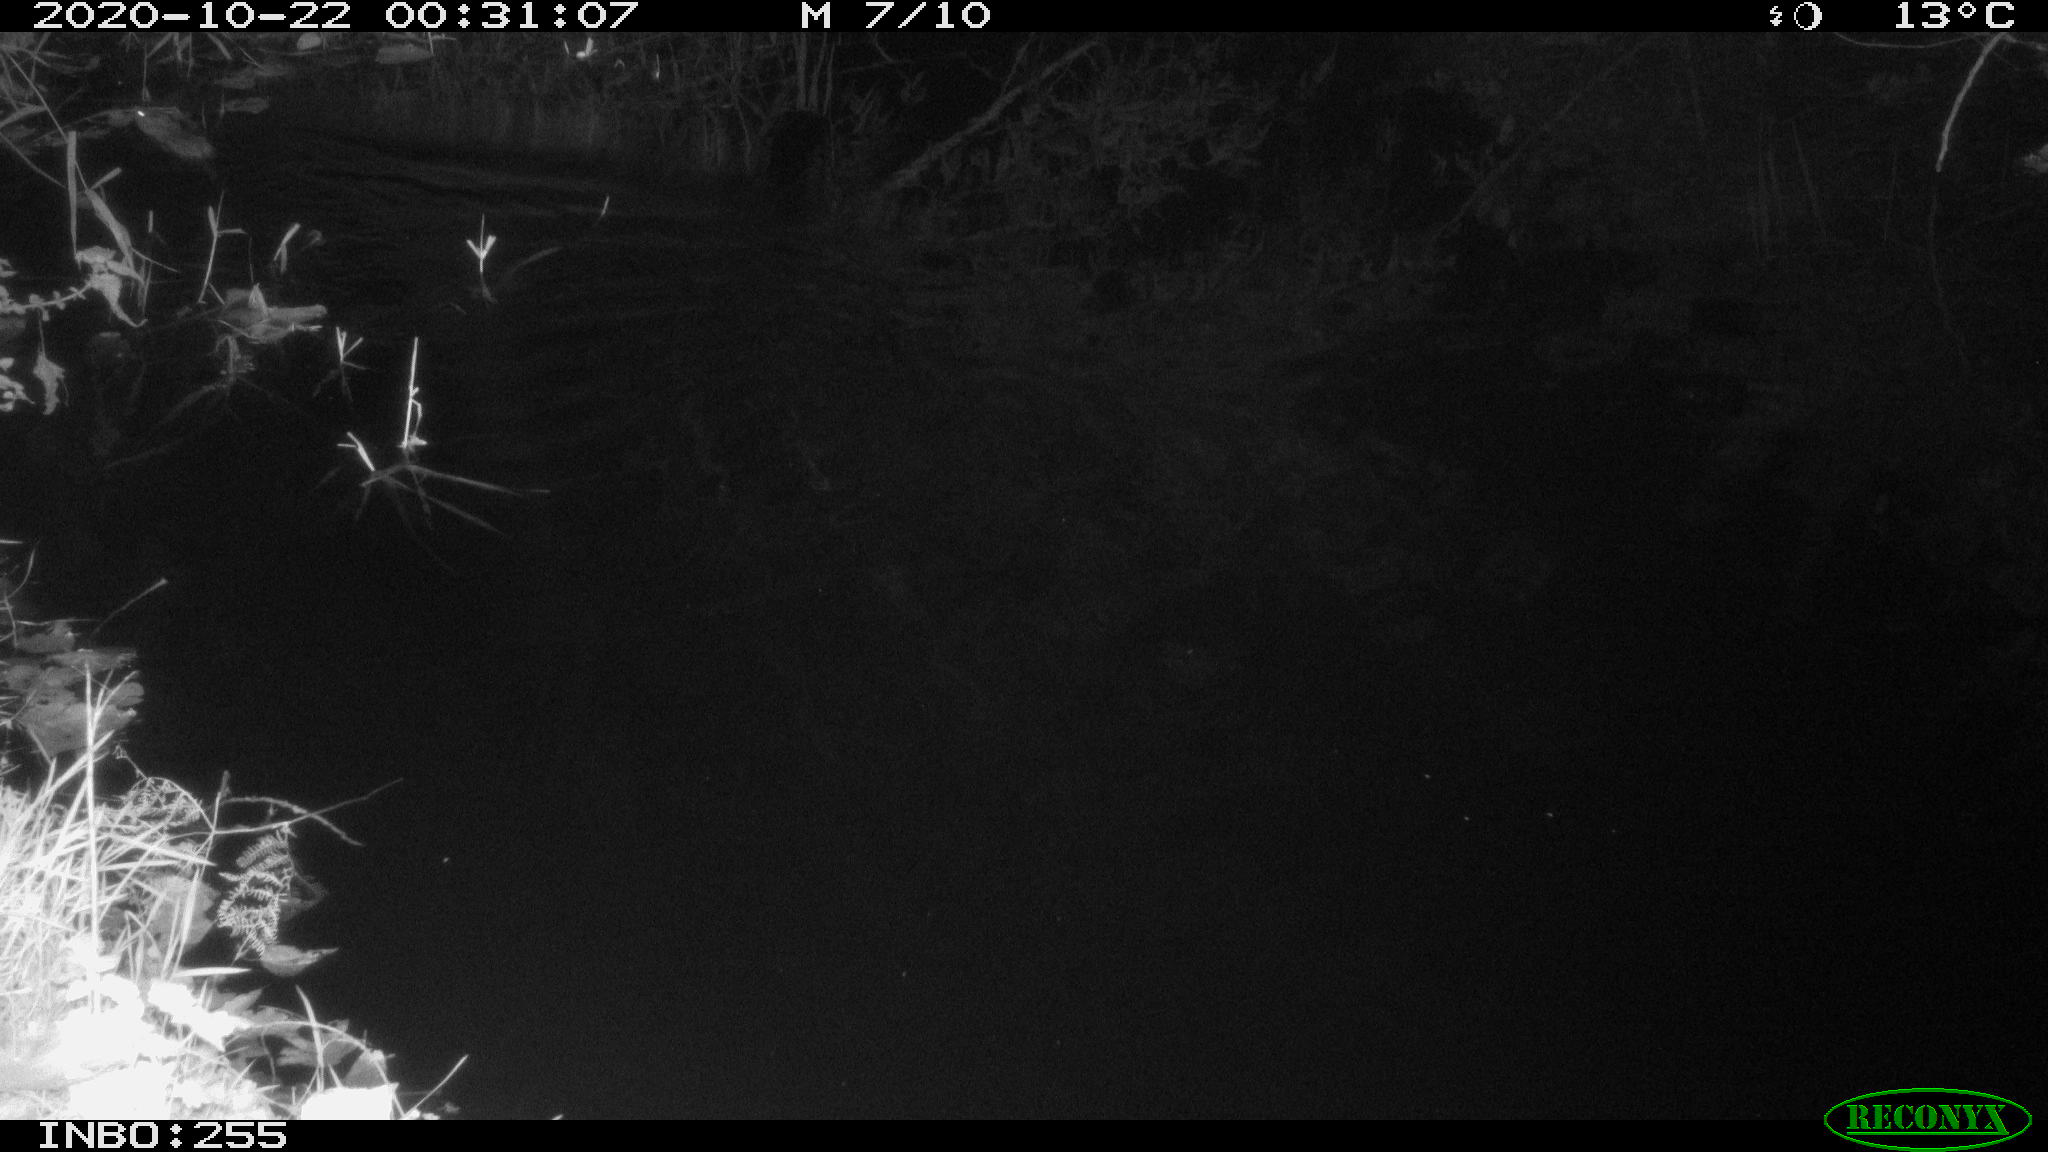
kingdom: Animalia
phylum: Chordata
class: Mammalia
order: Rodentia
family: Muridae
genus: Rattus
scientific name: Rattus norvegicus
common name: Brown rat
